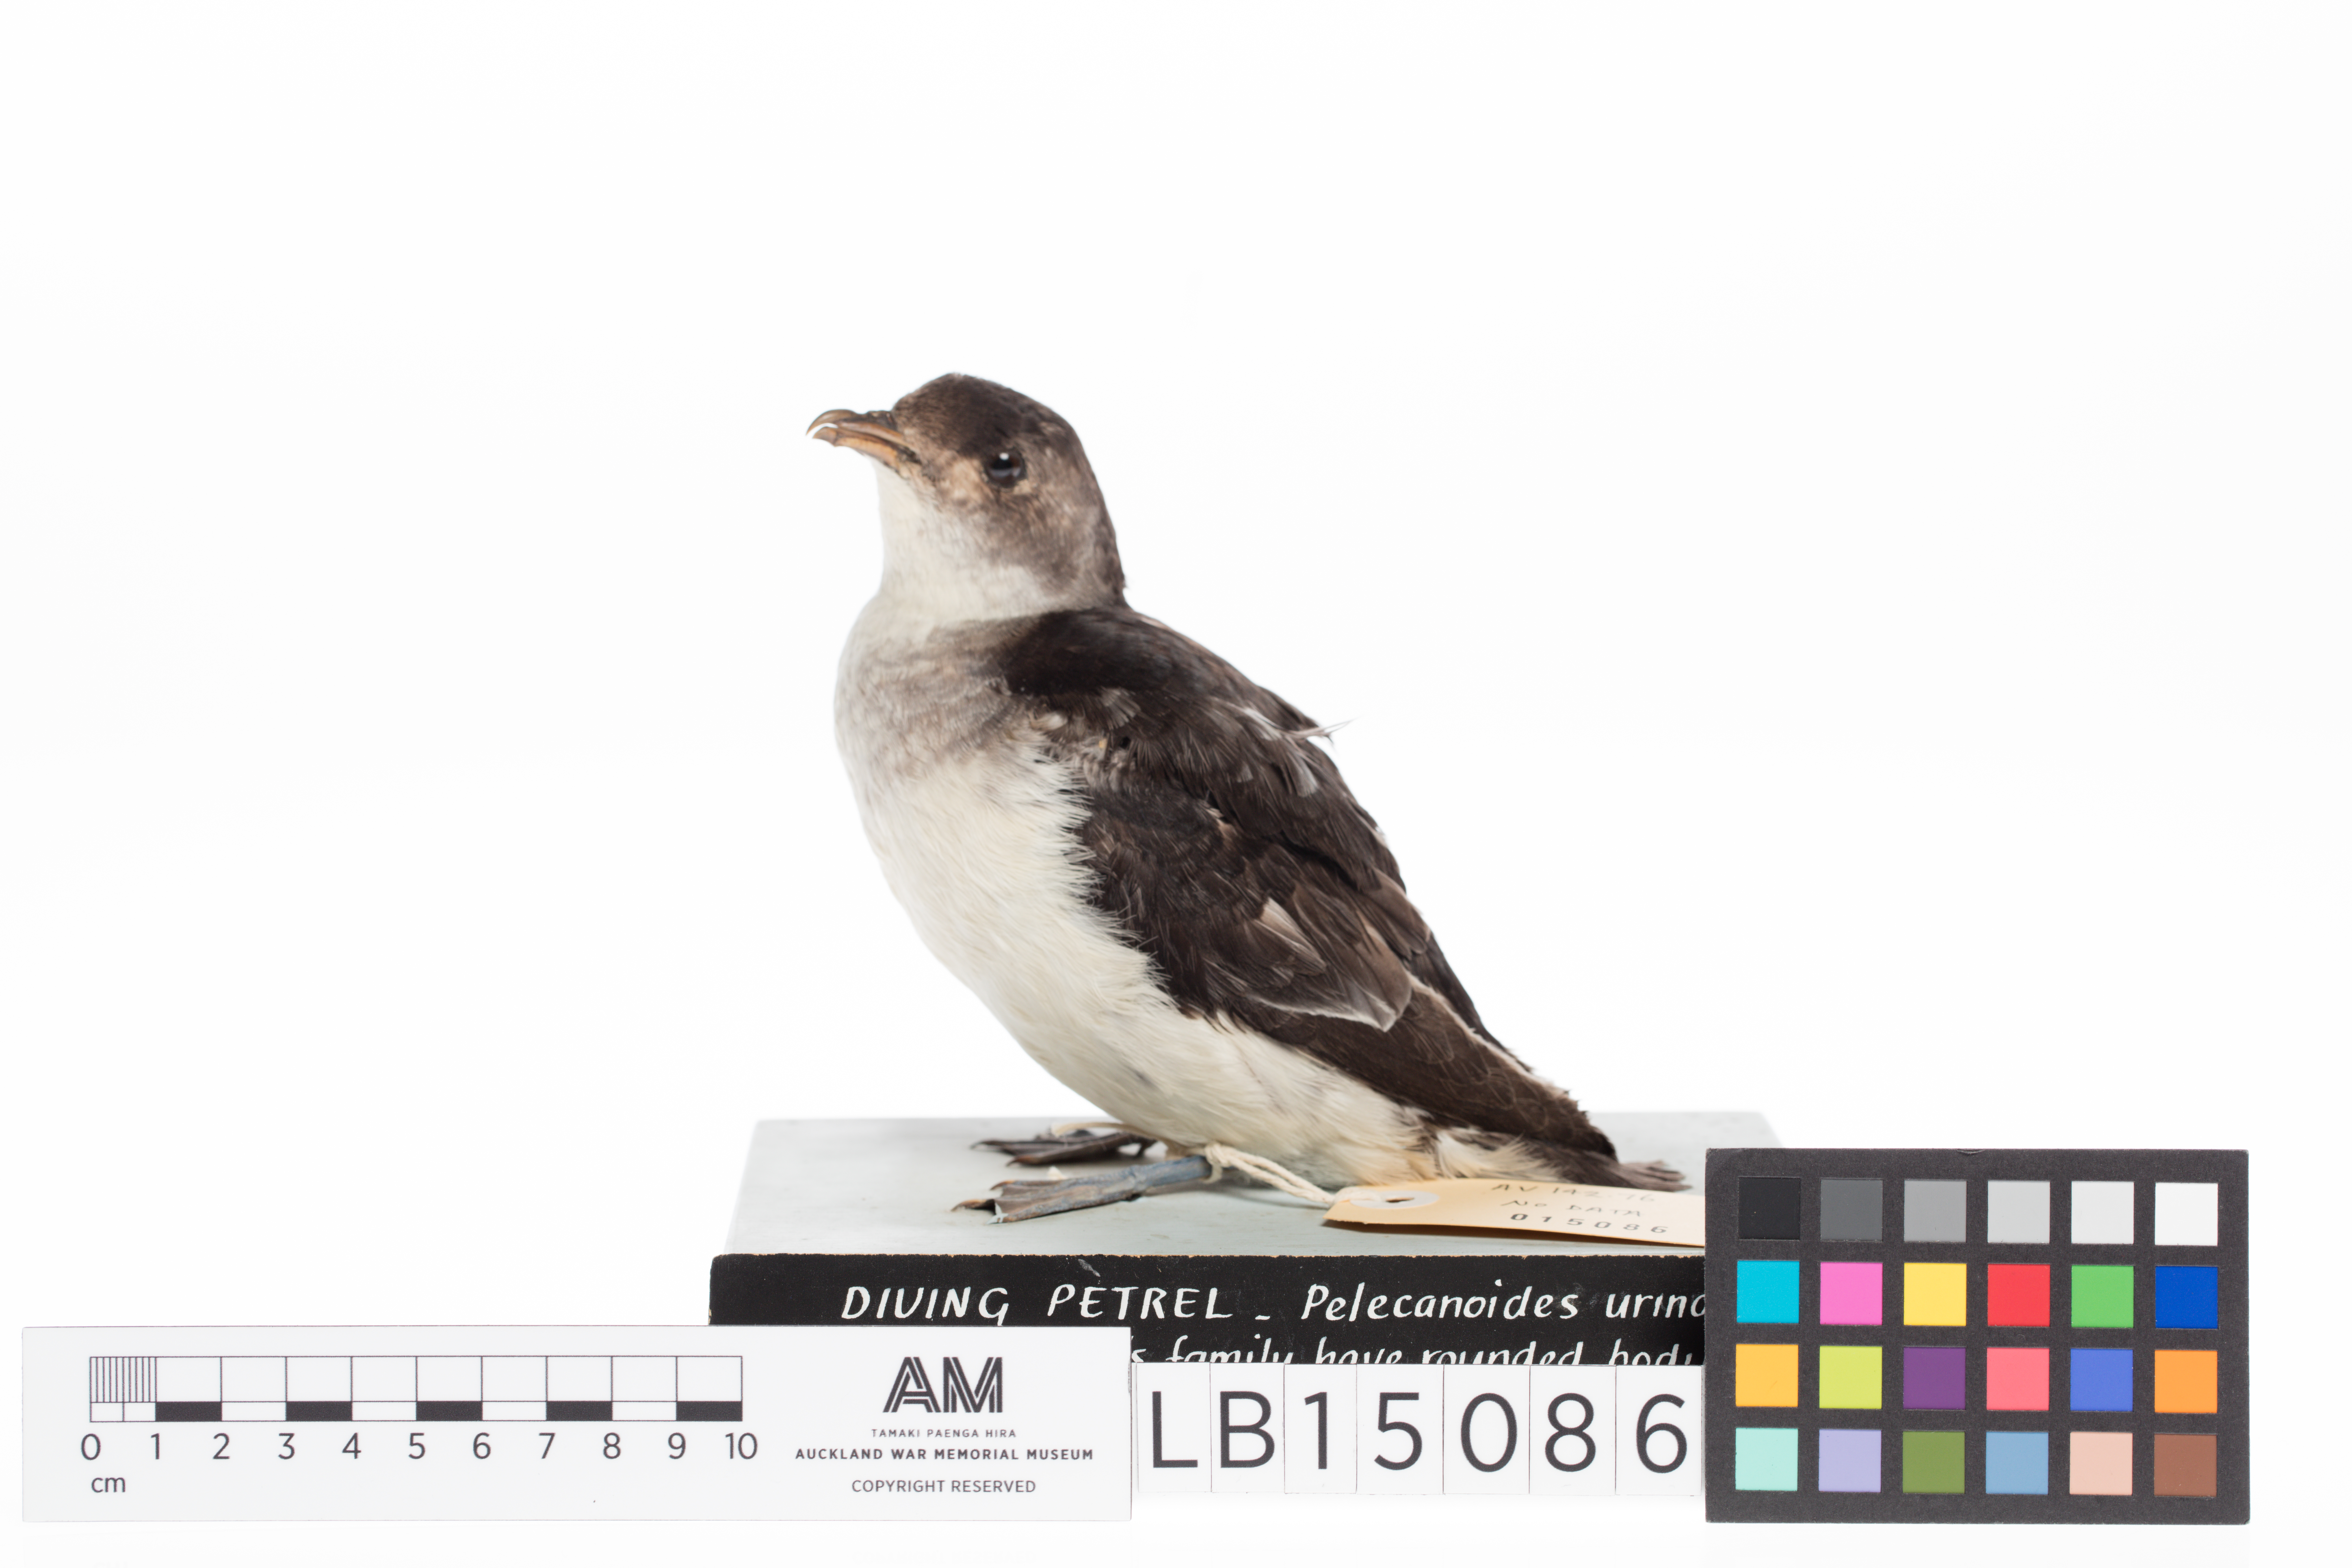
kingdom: Animalia
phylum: Chordata
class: Aves
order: Procellariiformes
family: Pelecanoididae
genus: Pelecanoides
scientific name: Pelecanoides urinatrix
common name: Common diving-petrel
